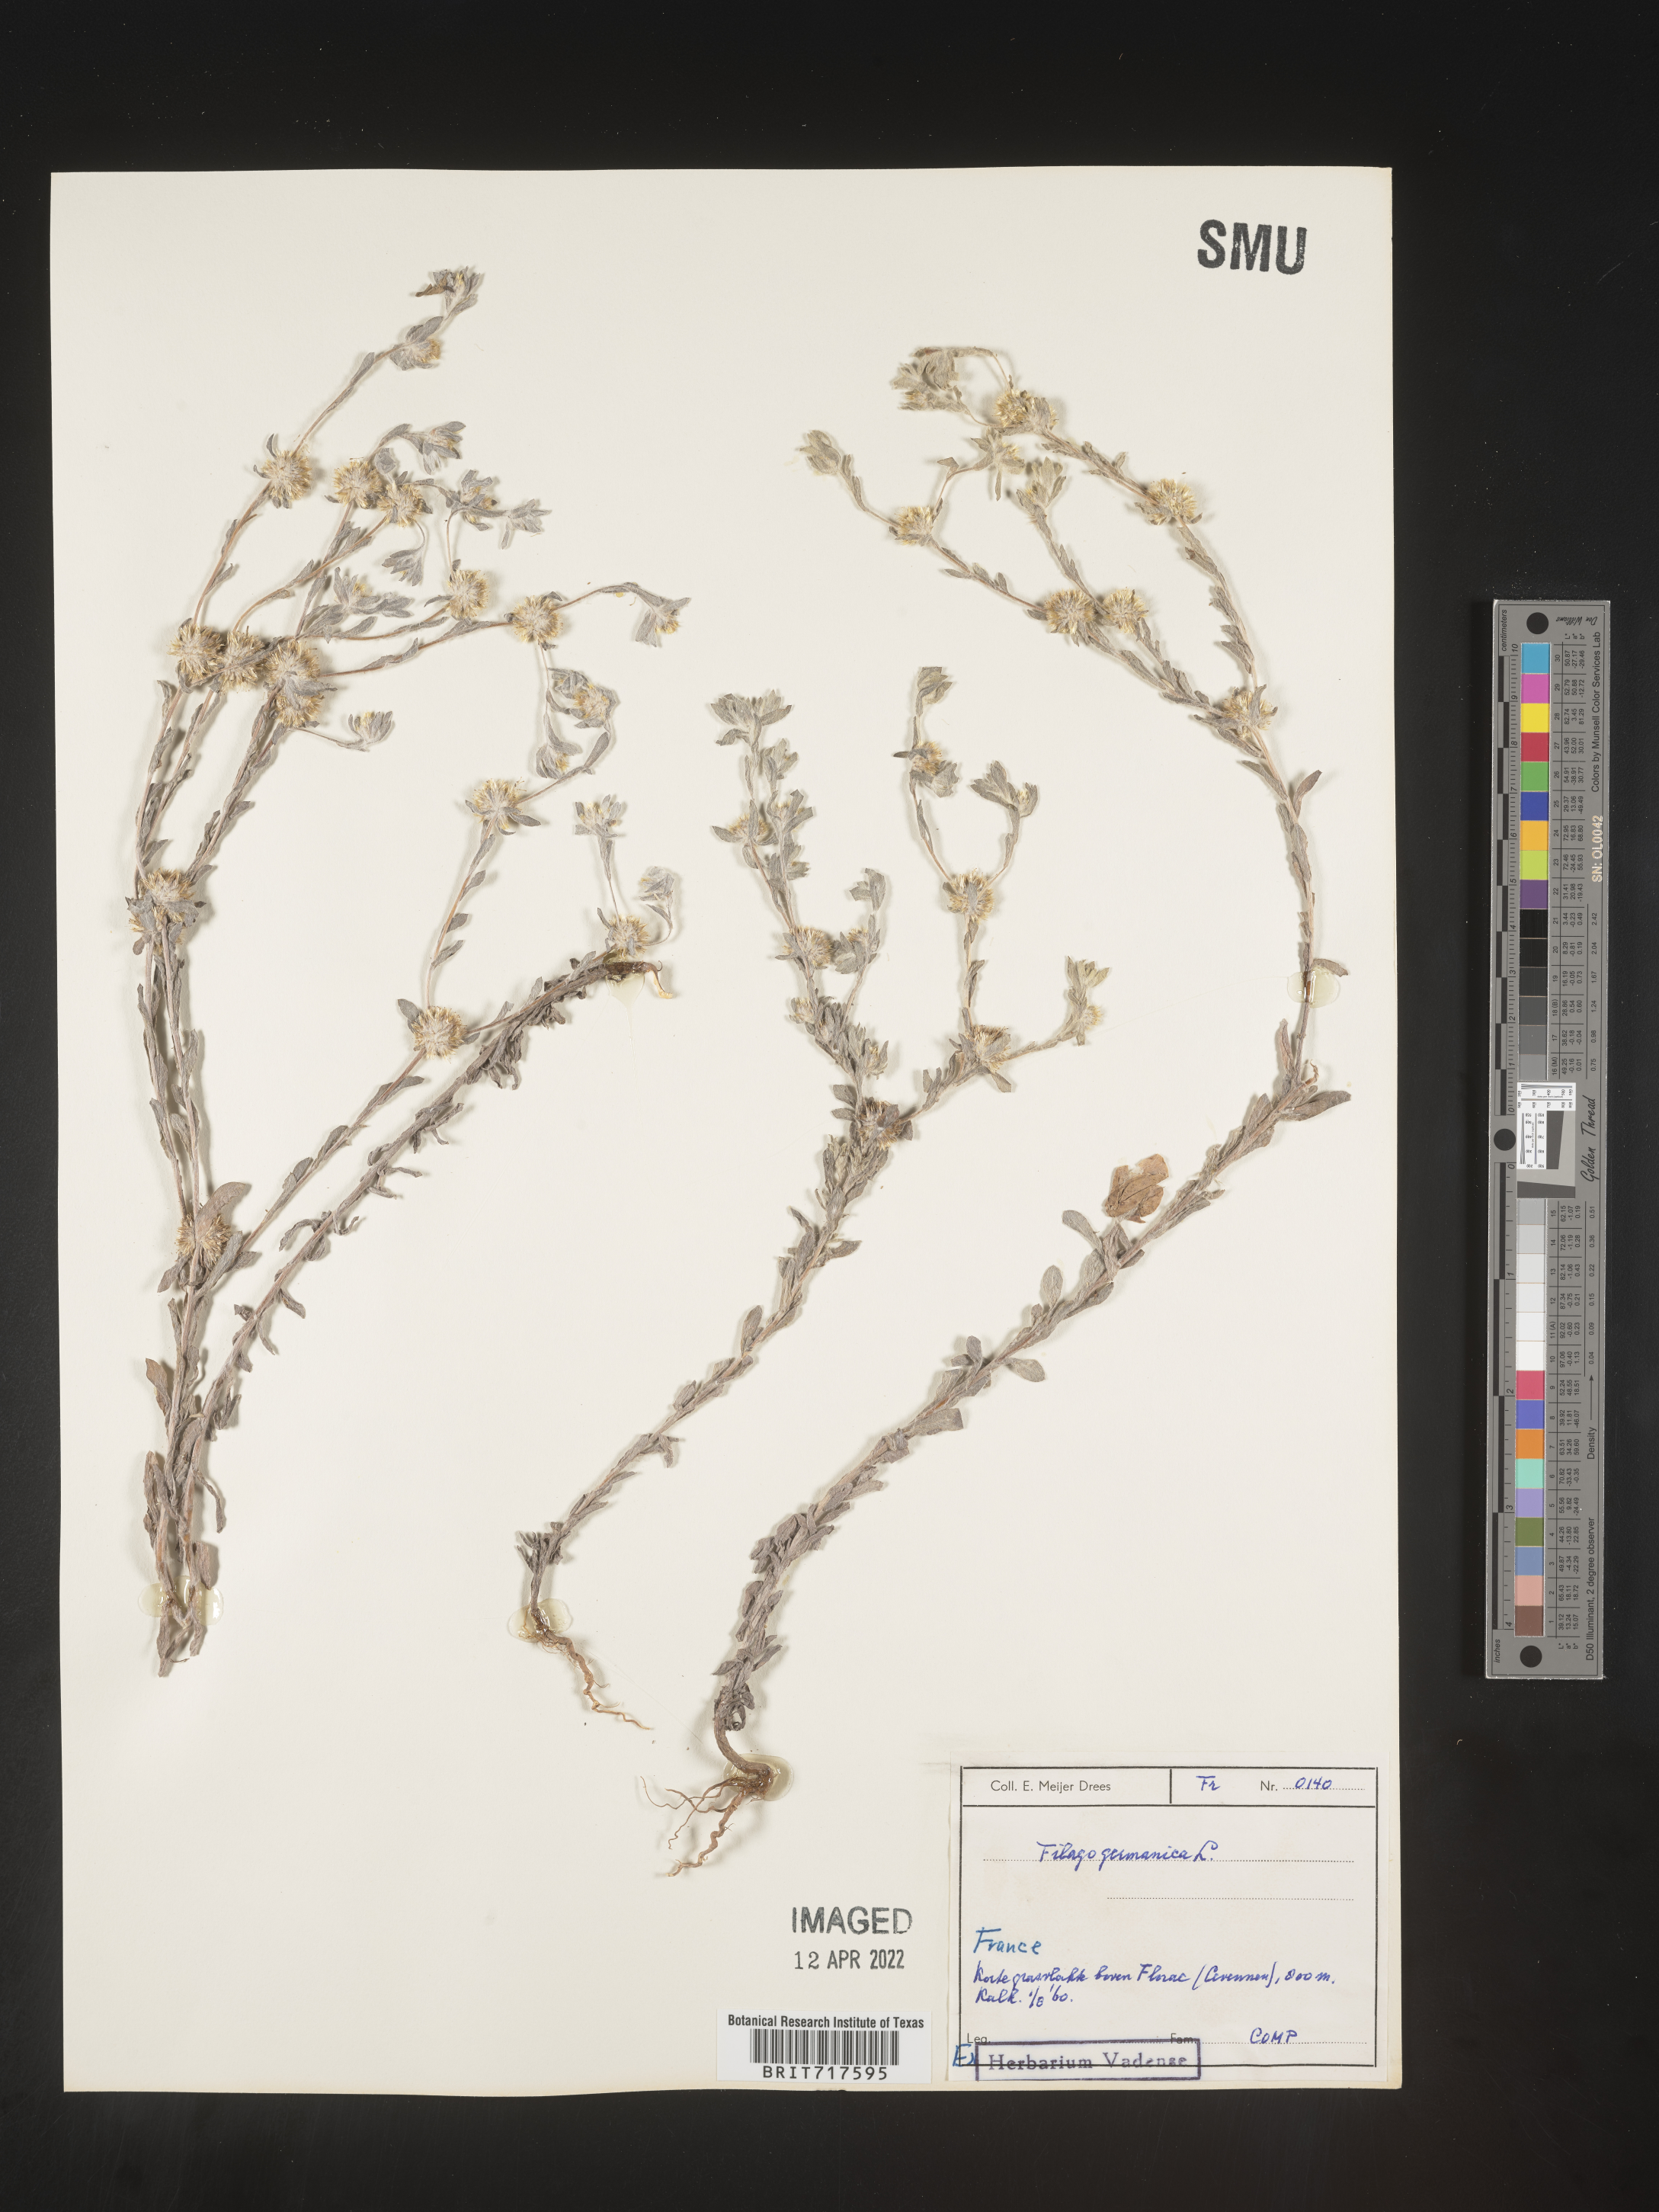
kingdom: Plantae
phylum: Tracheophyta
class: Magnoliopsida
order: Asterales
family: Asteraceae
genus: Filago
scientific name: Filago
